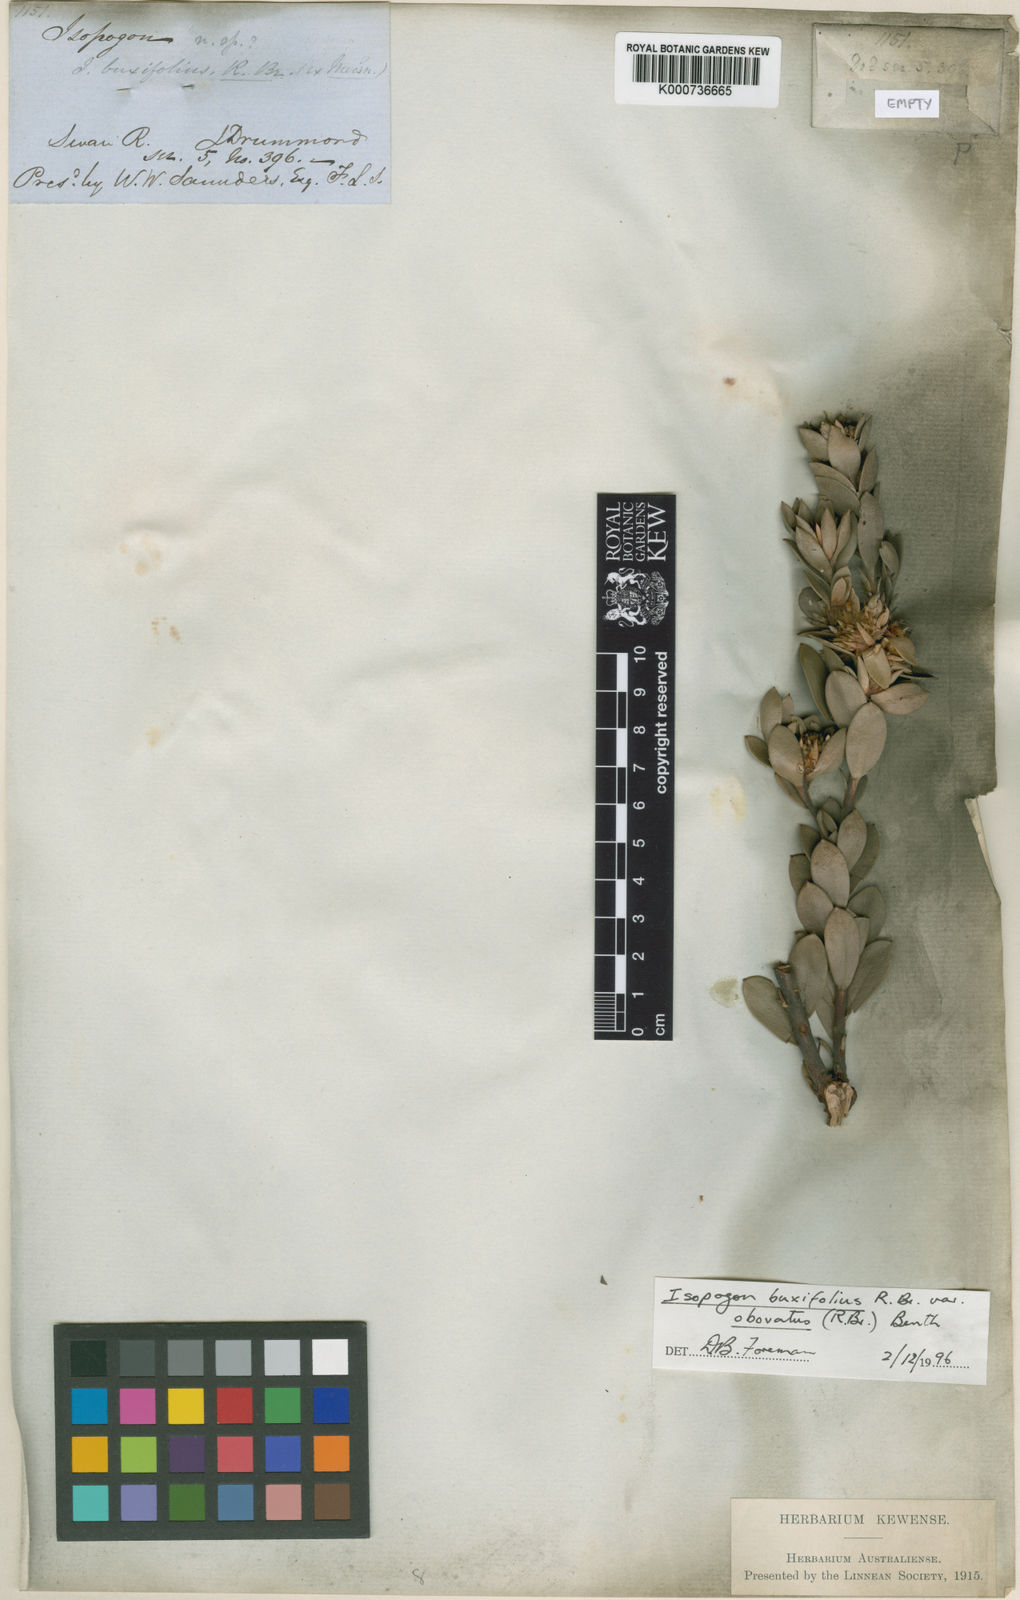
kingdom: Plantae
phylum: Tracheophyta
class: Magnoliopsida
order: Proteales
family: Proteaceae
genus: Isopogon
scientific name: Isopogon buxifolius
